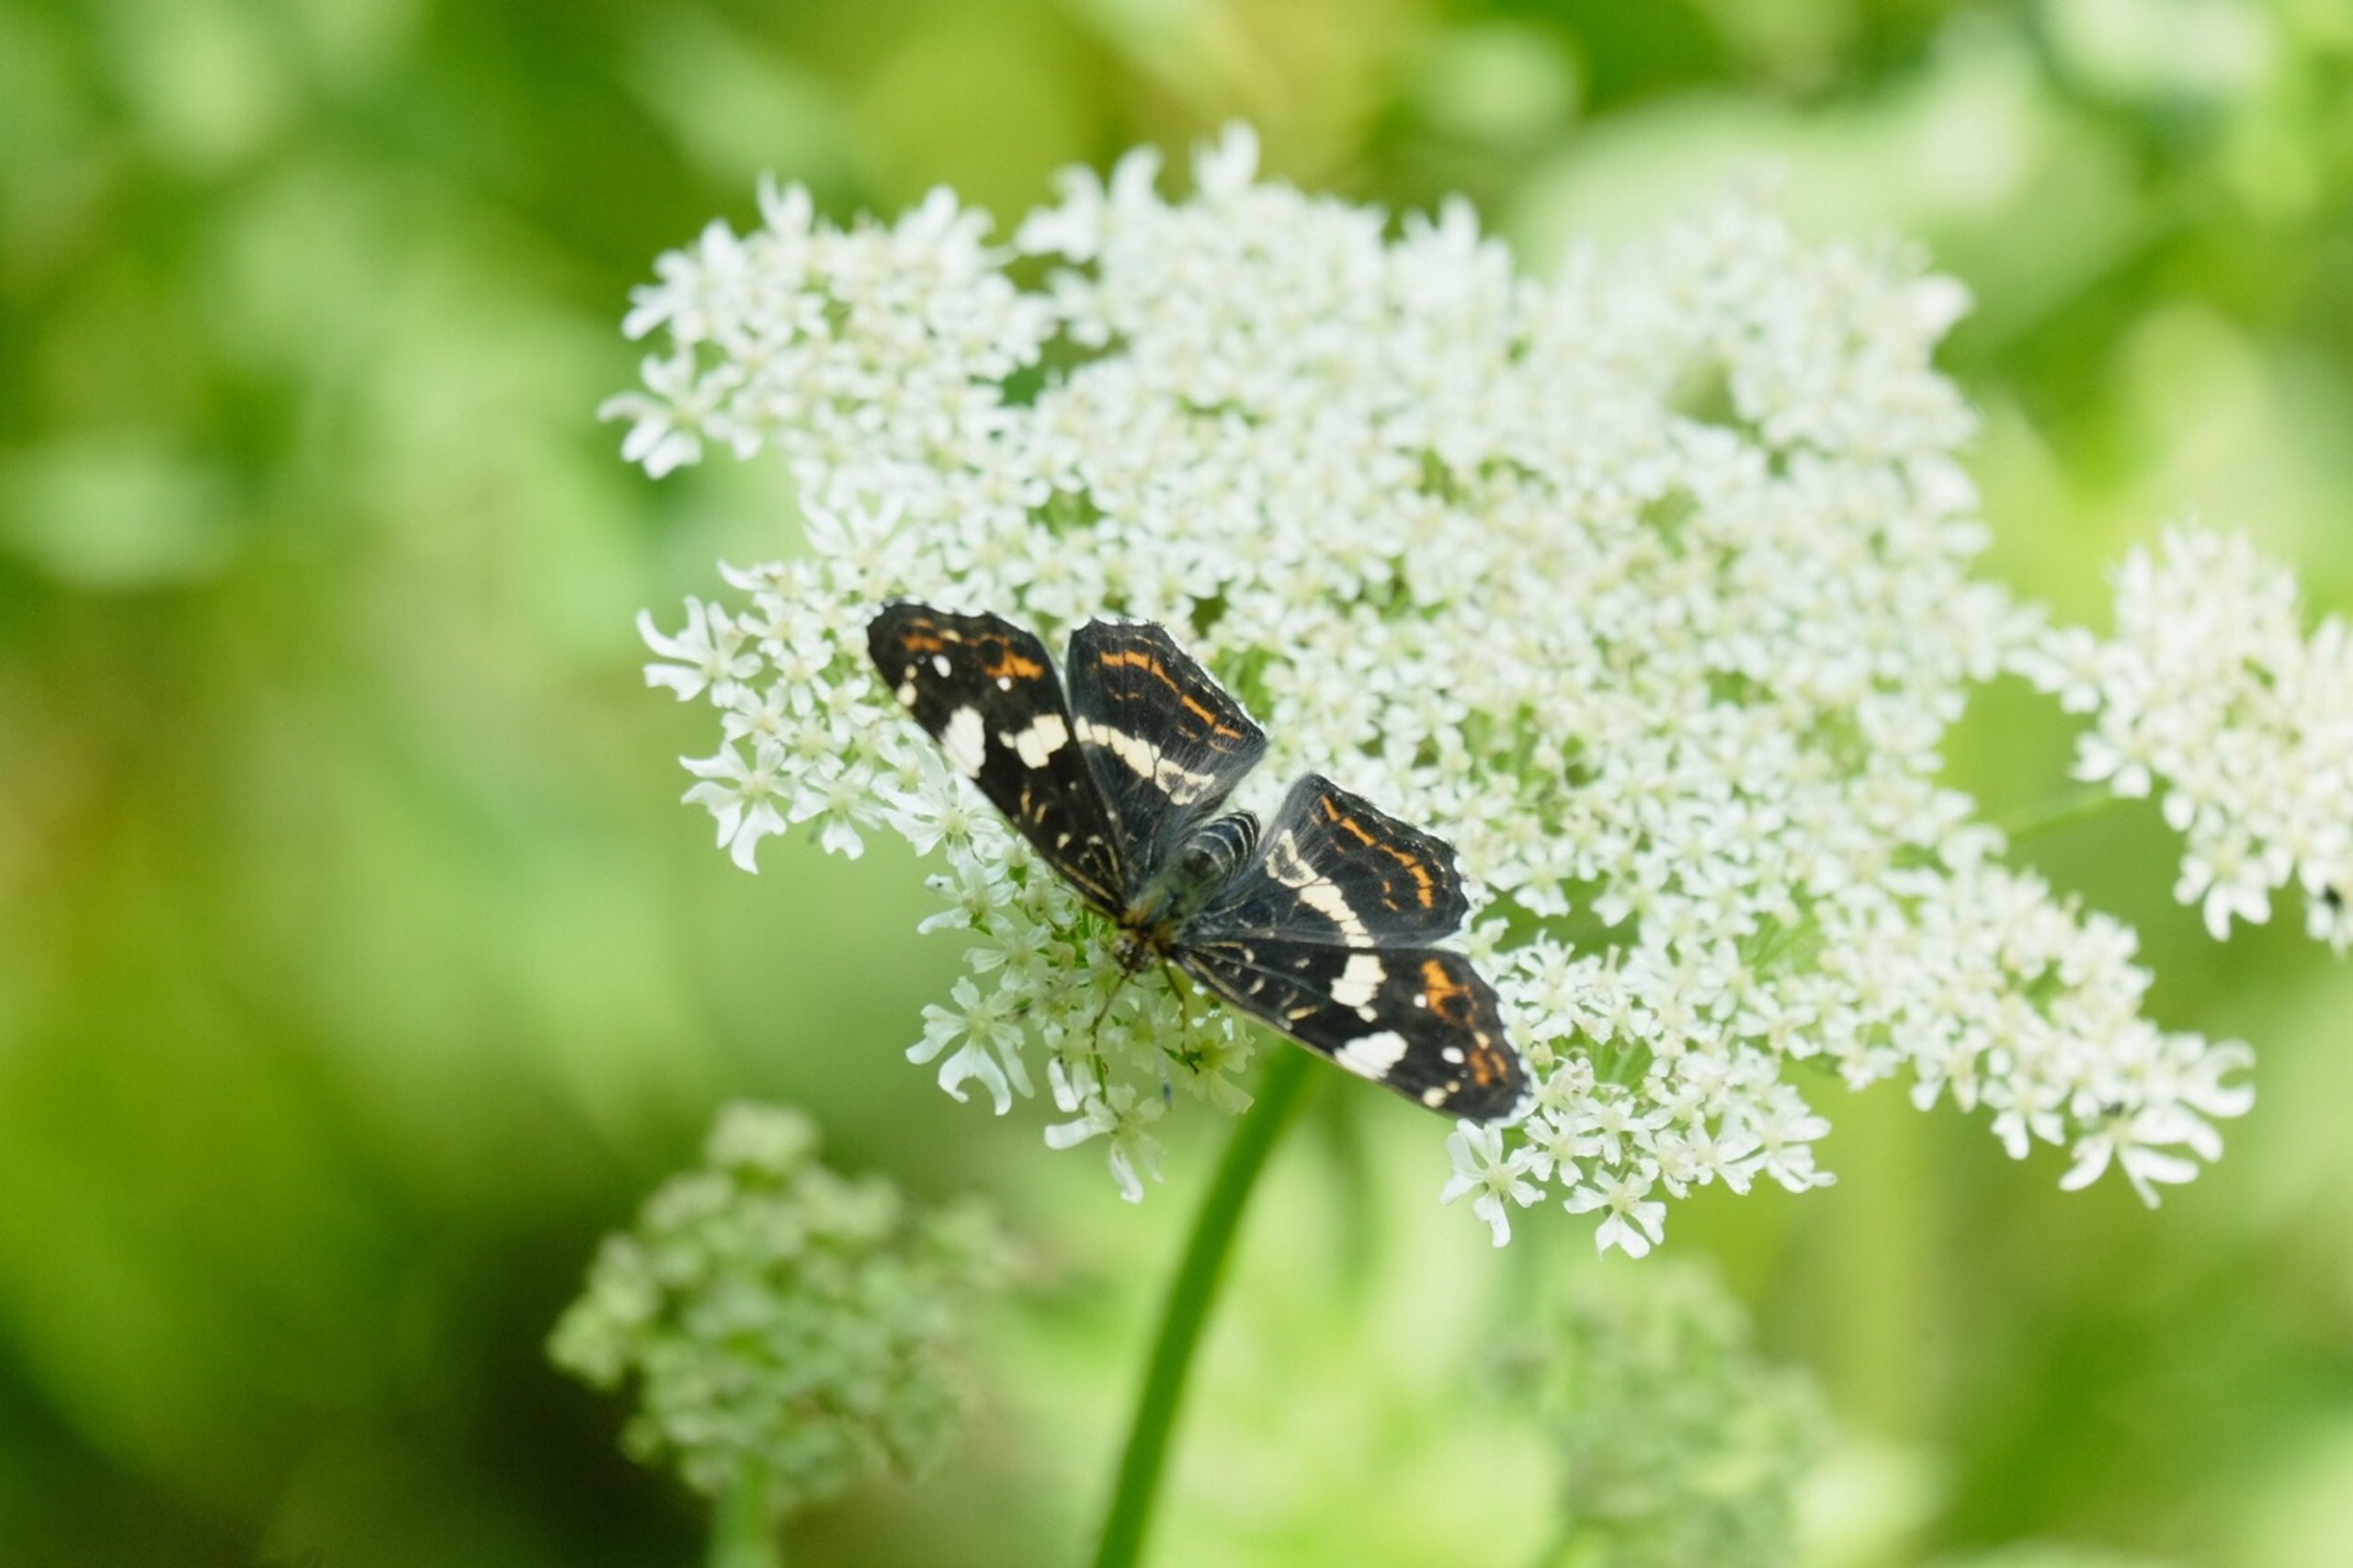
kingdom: Animalia
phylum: Arthropoda
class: Insecta
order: Lepidoptera
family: Nymphalidae
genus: Araschnia
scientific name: Araschnia levana
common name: Nældesommerfugl
